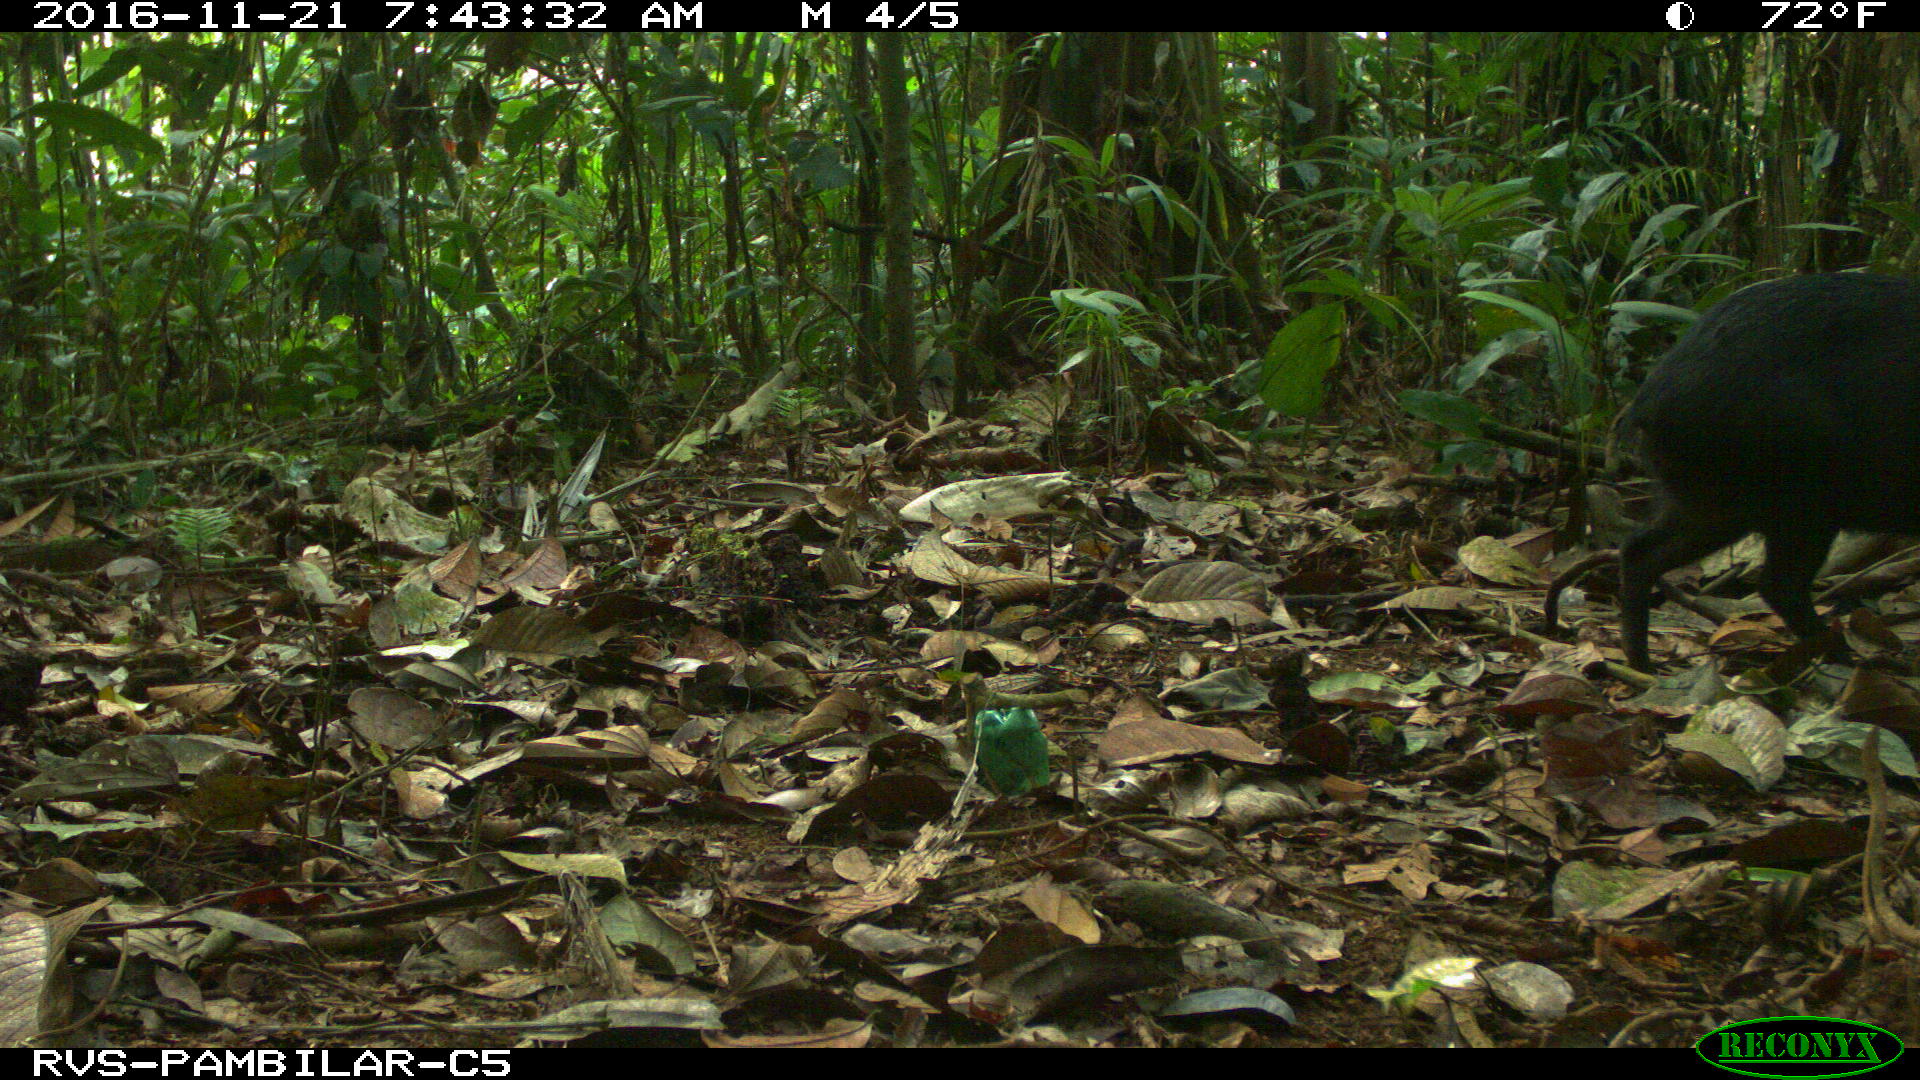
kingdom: Animalia
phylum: Chordata
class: Mammalia
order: Artiodactyla
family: Tayassuidae
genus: Pecari
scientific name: Pecari tajacu
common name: Collared peccary
